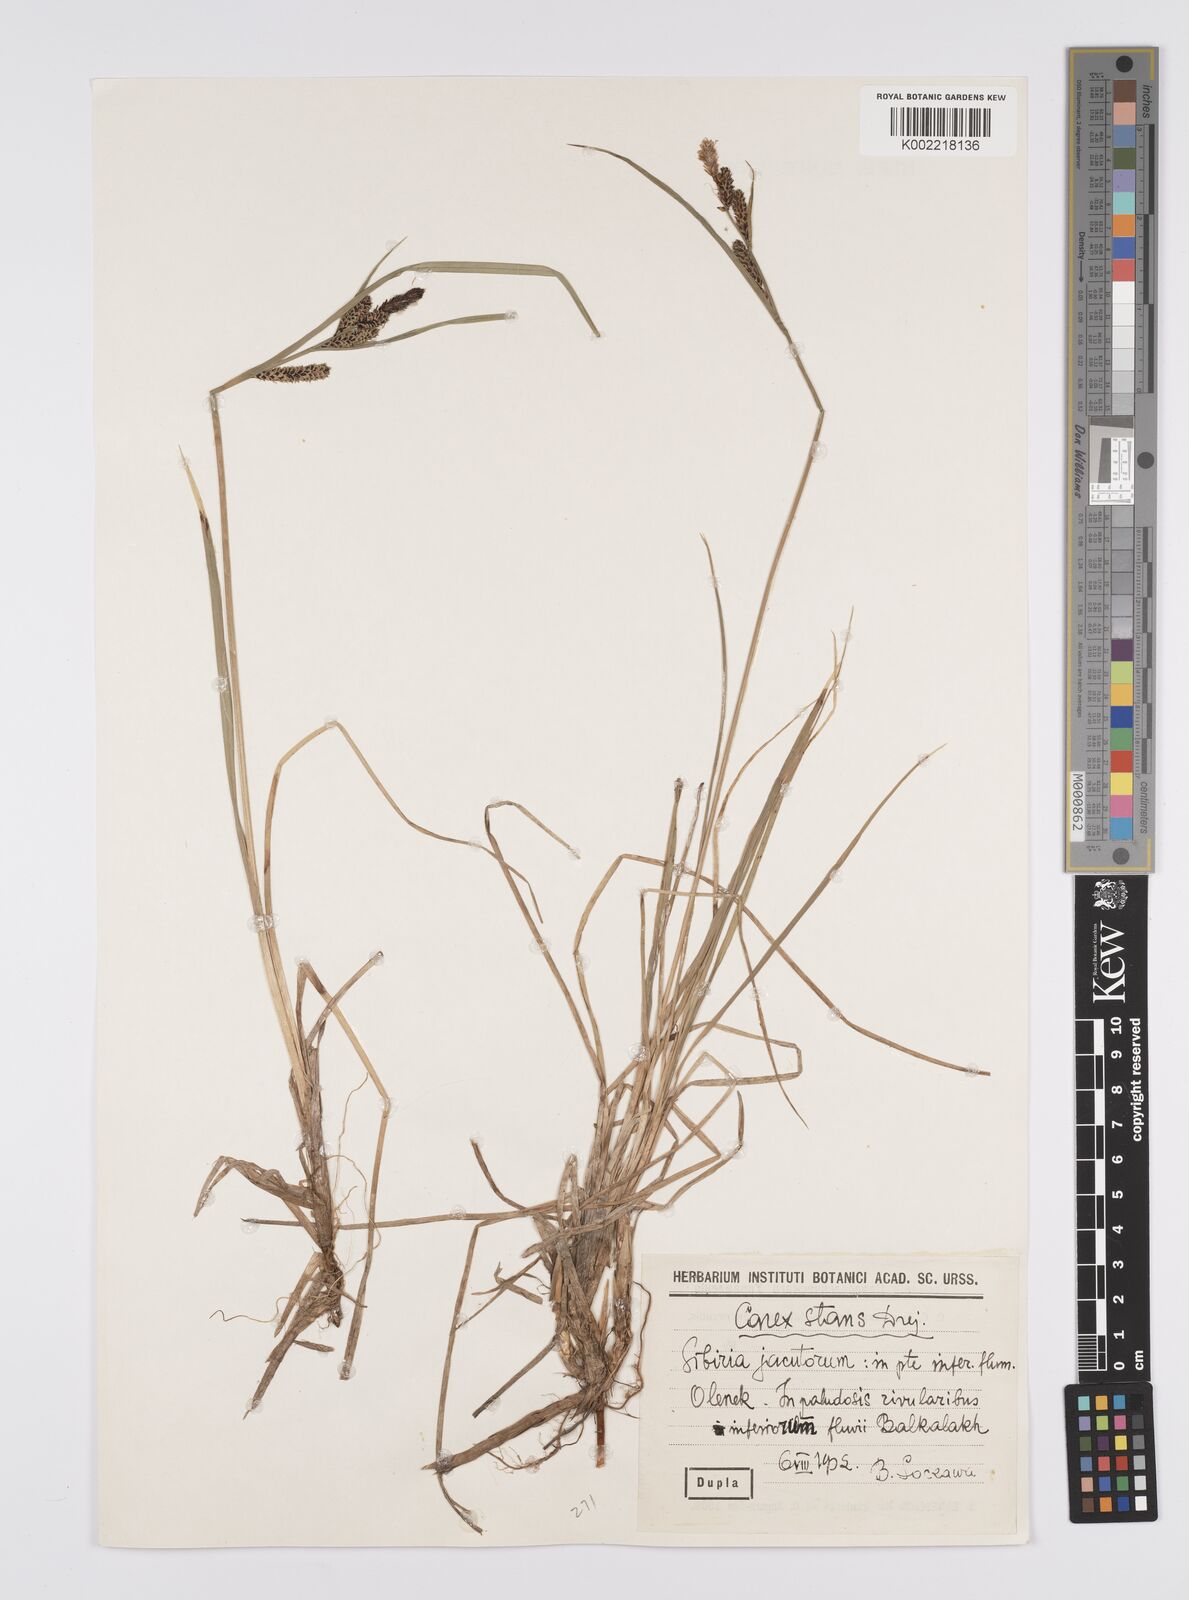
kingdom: Plantae
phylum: Tracheophyta
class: Liliopsida
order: Poales
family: Cyperaceae
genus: Carex
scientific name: Carex aquatilis
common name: Water sedge
